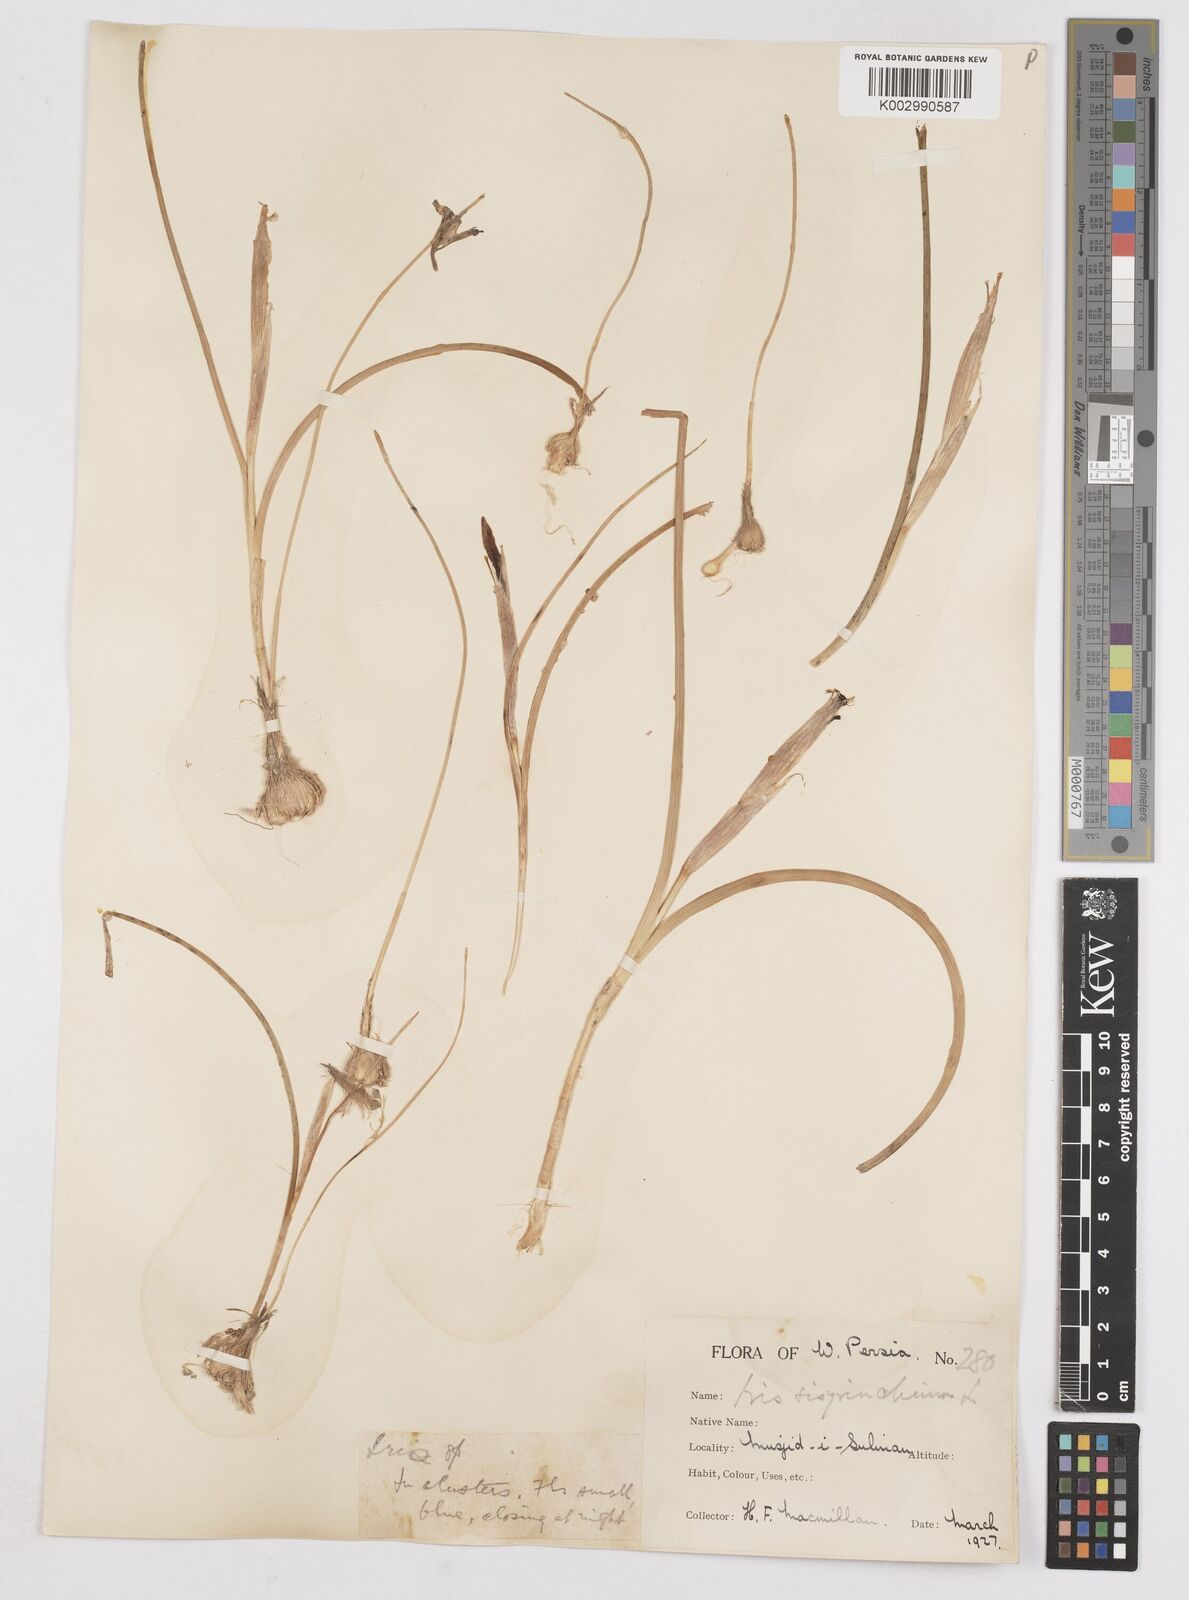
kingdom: Plantae
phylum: Tracheophyta
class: Liliopsida
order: Asparagales
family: Iridaceae
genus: Moraea
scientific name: Moraea sisyrinchium
